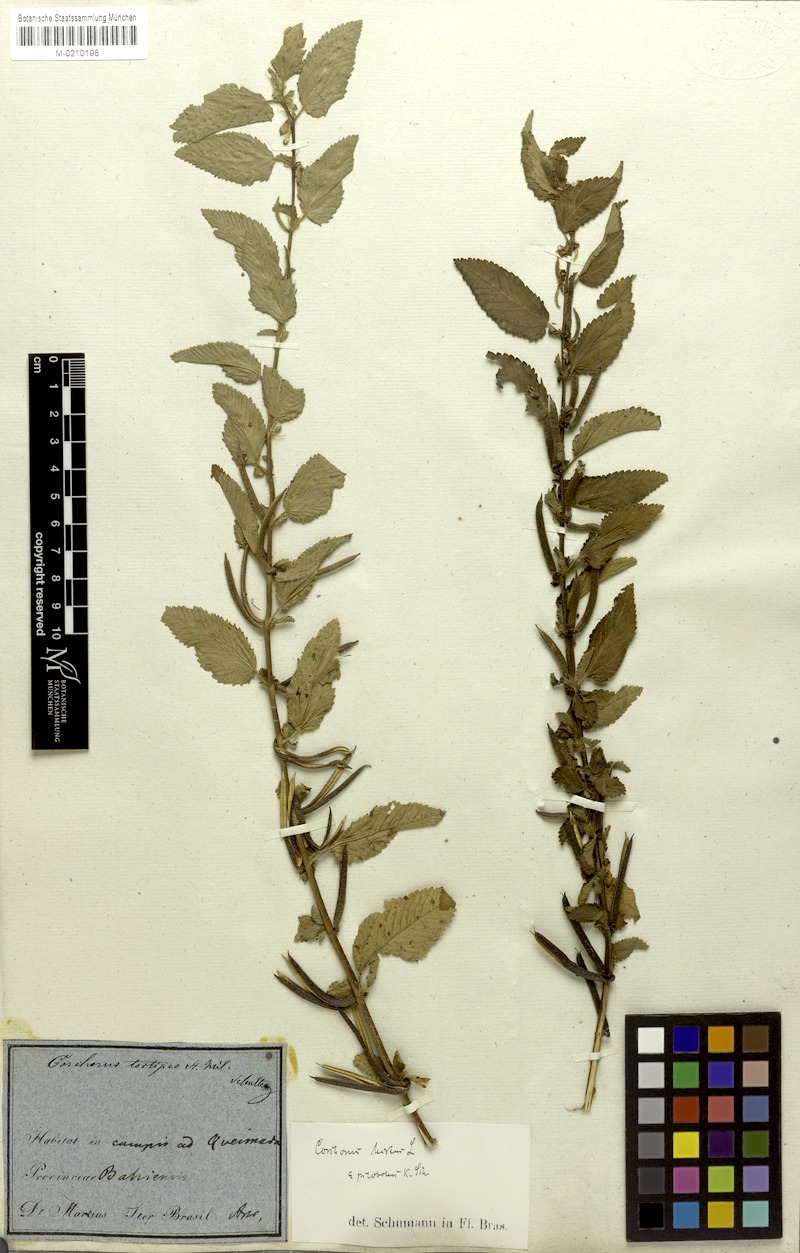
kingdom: Plantae
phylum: Tracheophyta
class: Magnoliopsida
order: Malvales
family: Malvaceae
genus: Corchorus
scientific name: Corchorus hirtus
